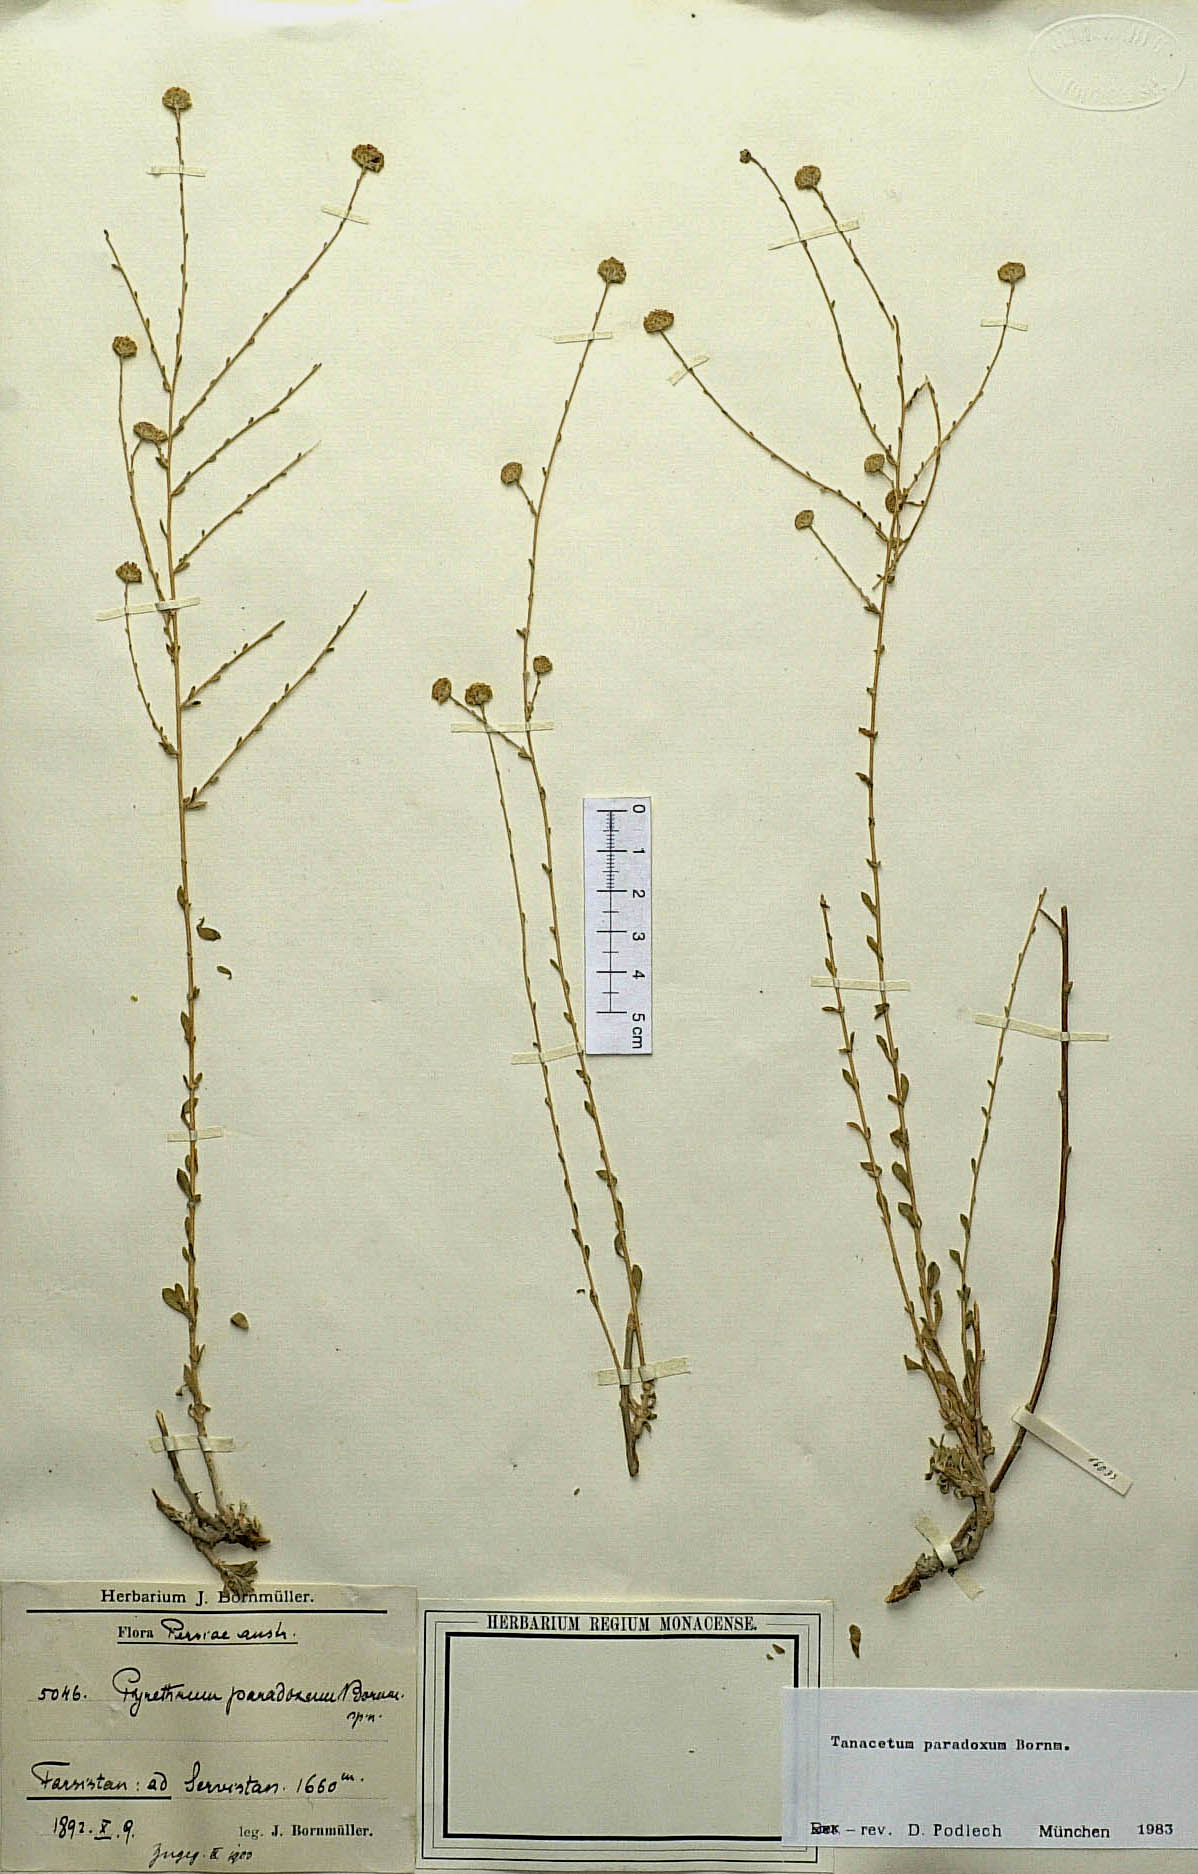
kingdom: Plantae
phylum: Tracheophyta
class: Magnoliopsida
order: Asterales
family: Asteraceae
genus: Tanacetum
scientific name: Tanacetum paradoxum
